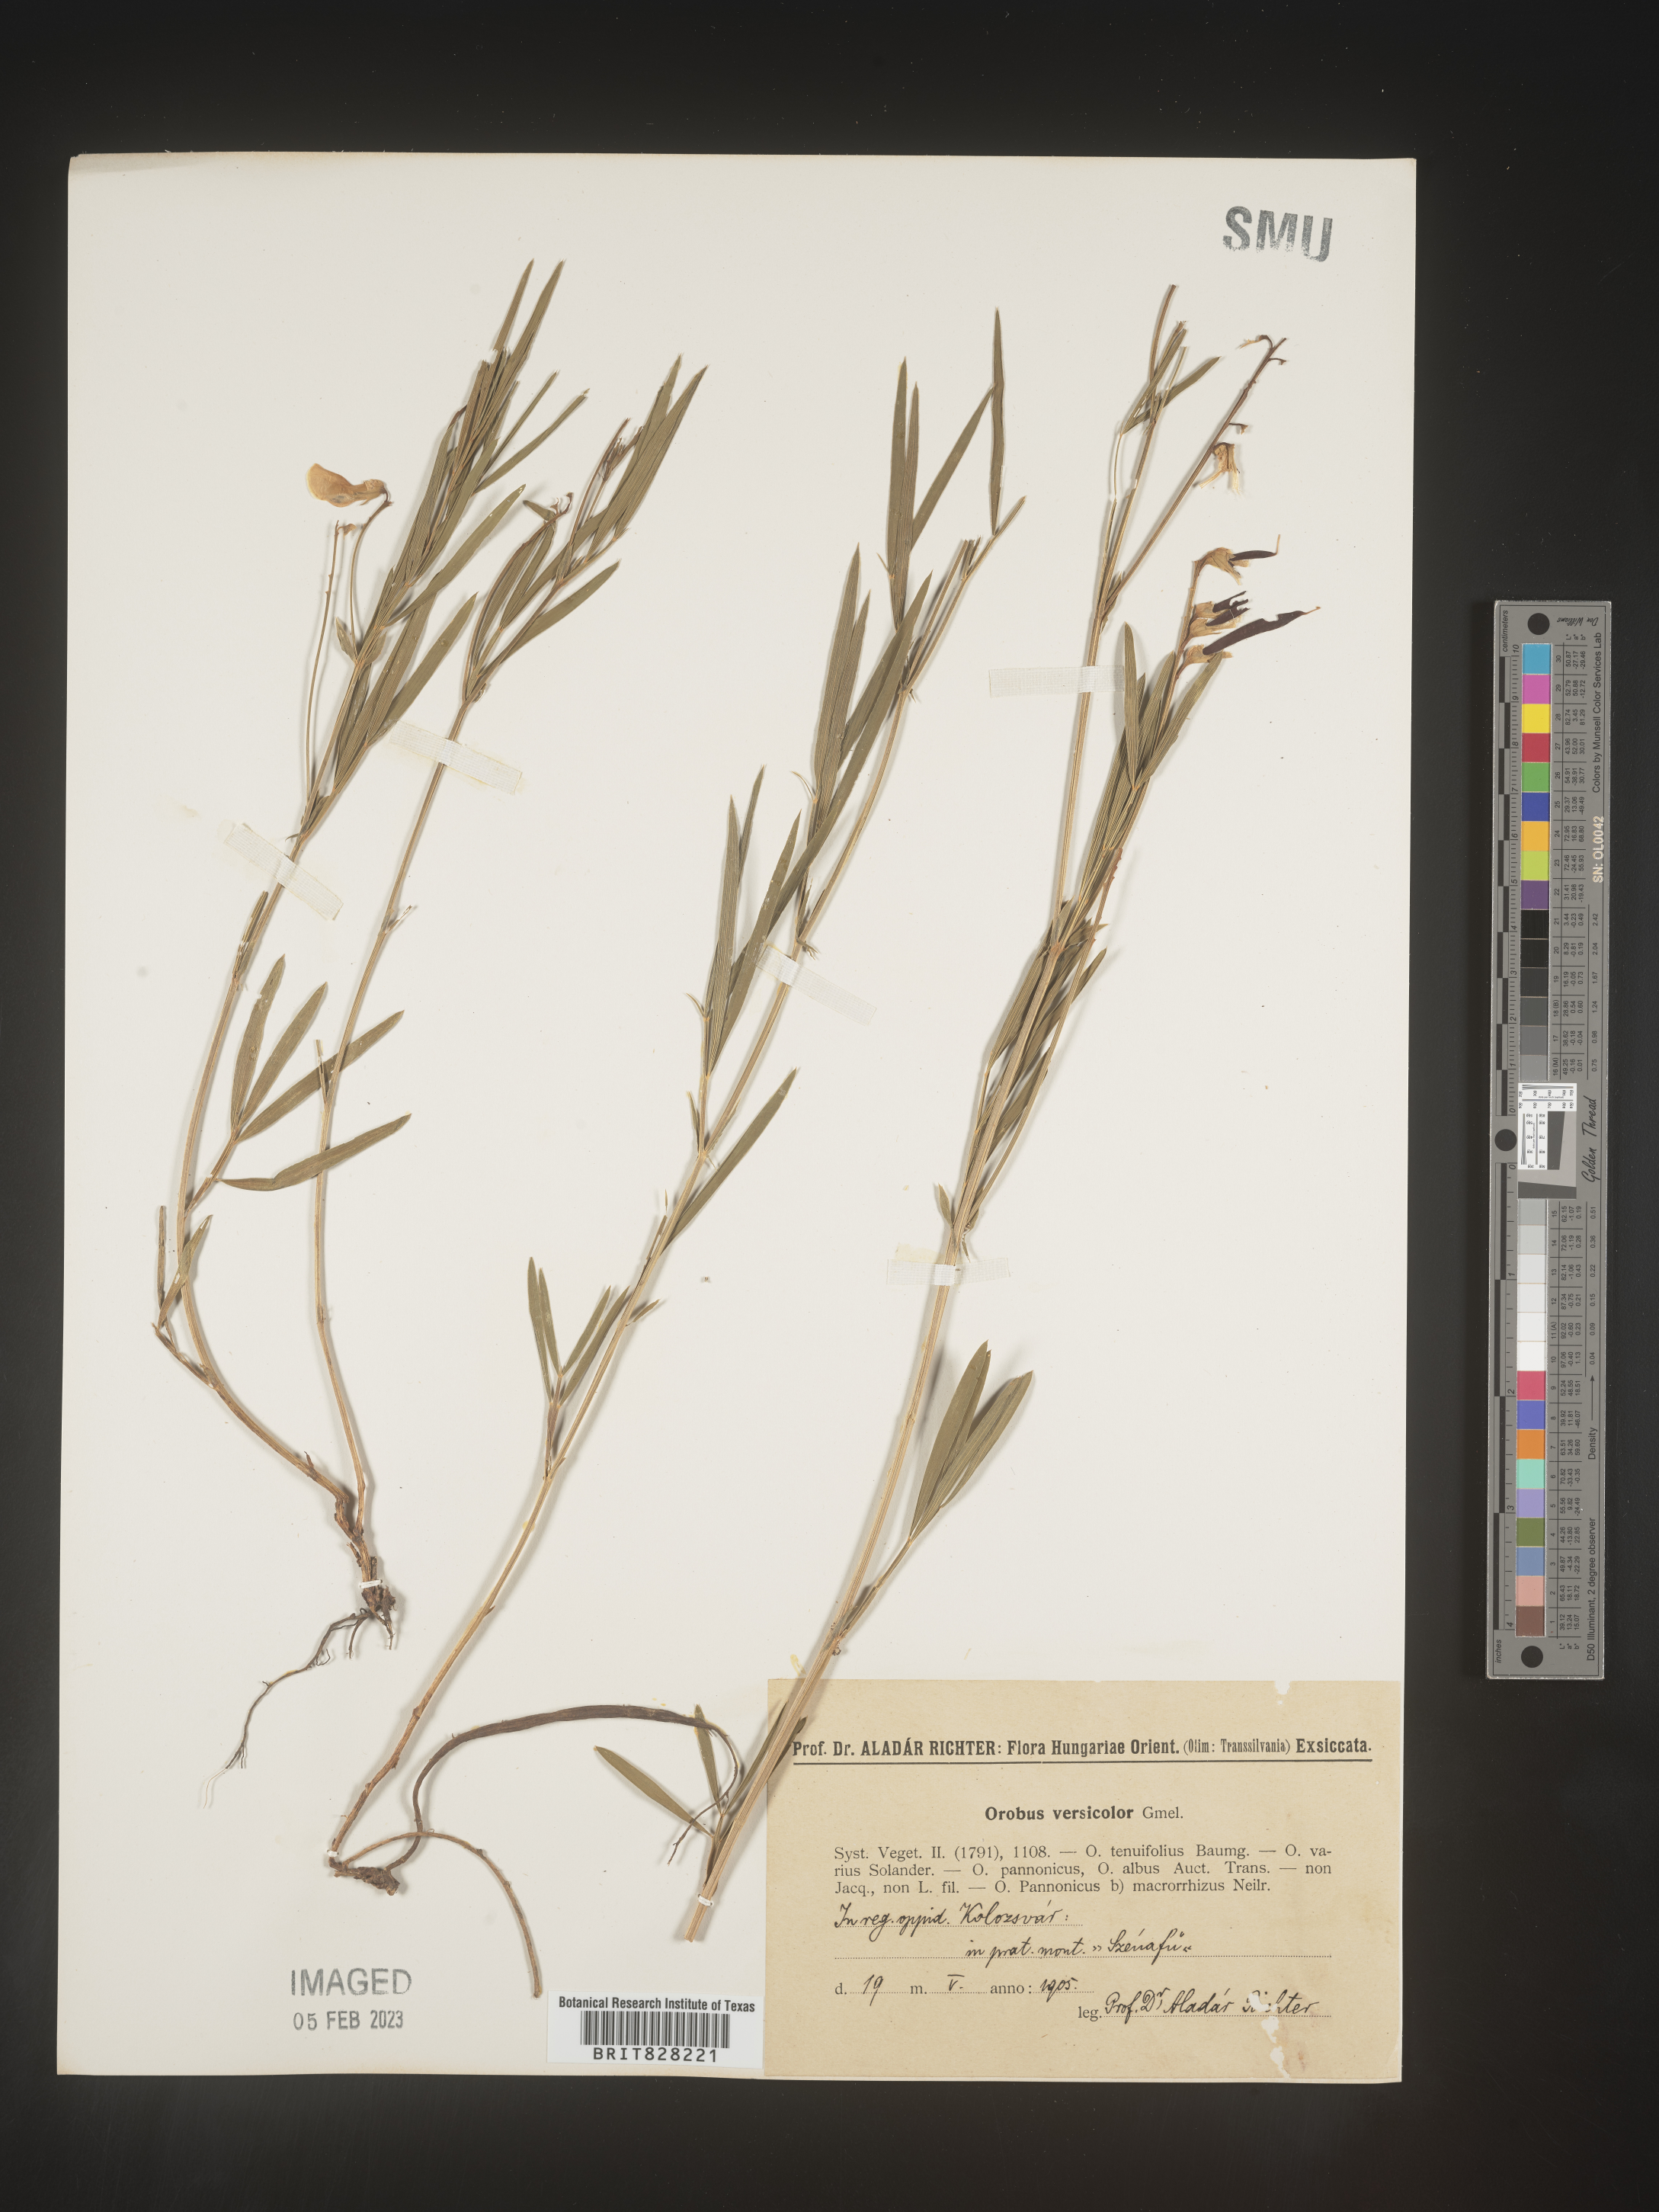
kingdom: Plantae
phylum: Tracheophyta
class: Magnoliopsida
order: Fabales
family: Fabaceae
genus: Lathyrus
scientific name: Lathyrus
